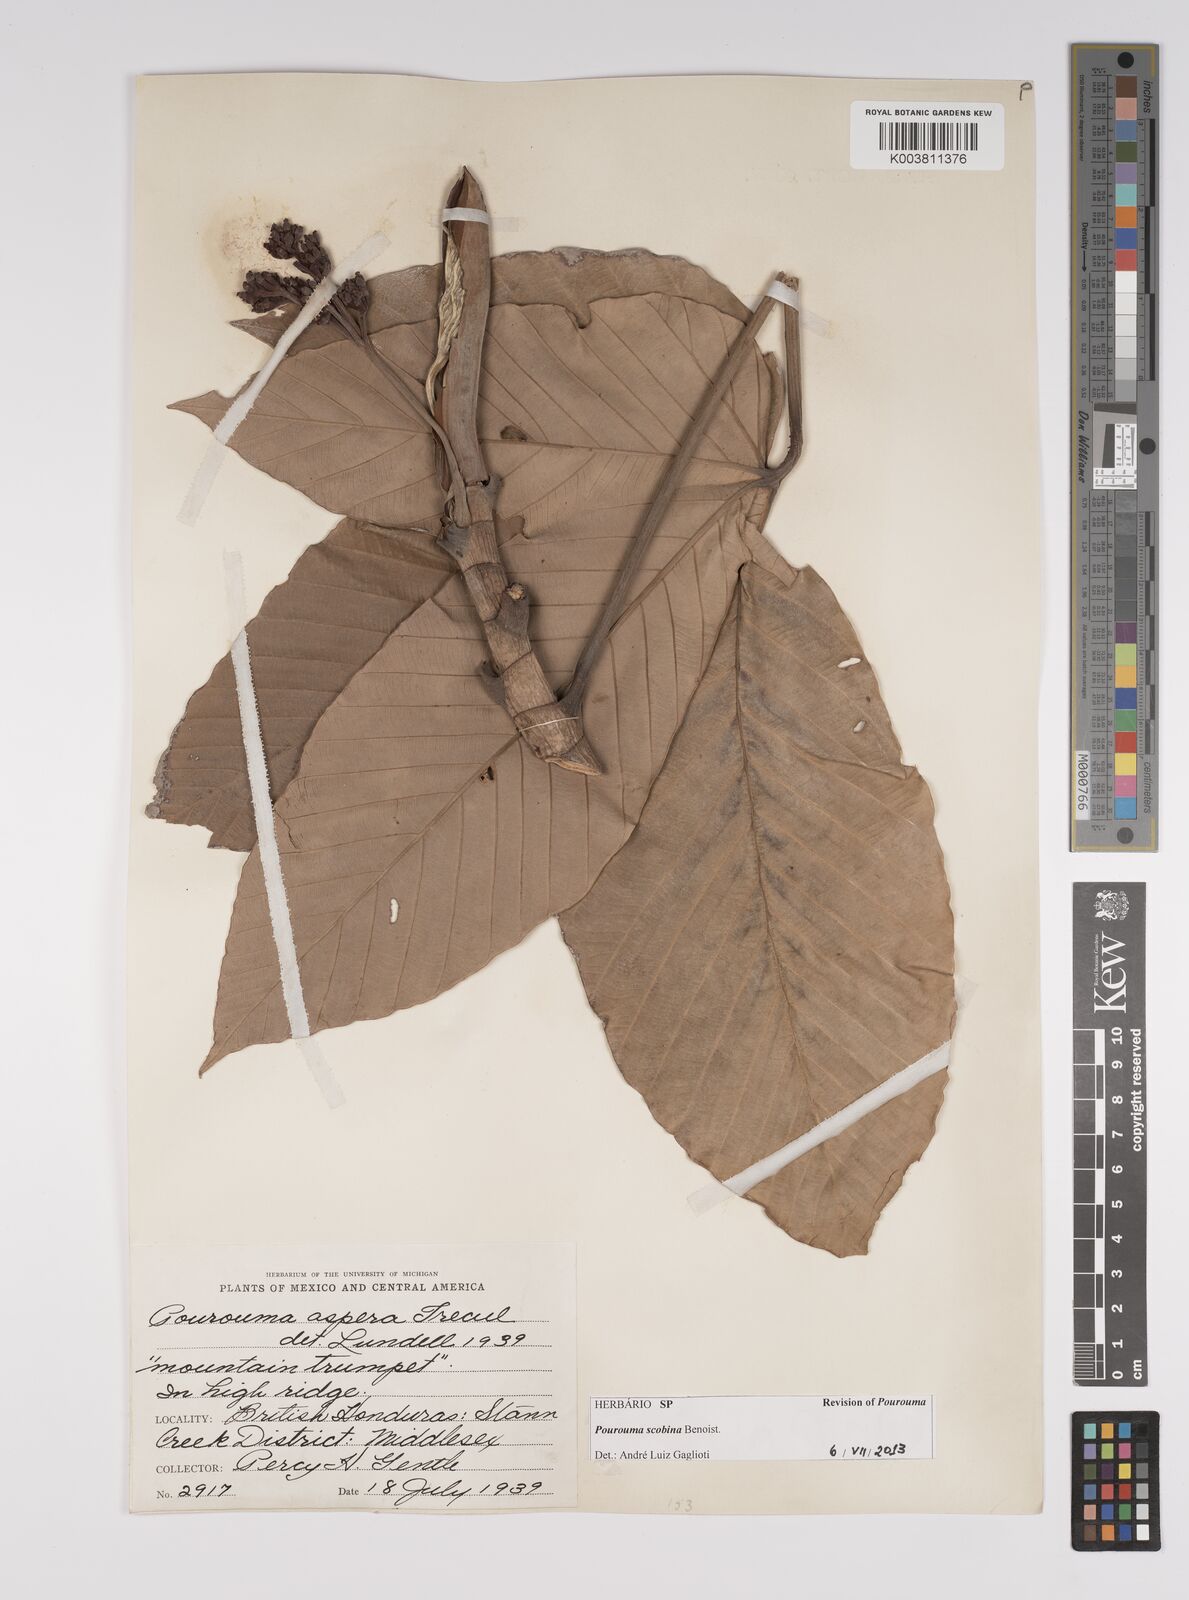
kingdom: Plantae
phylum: Tracheophyta
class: Magnoliopsida
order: Rosales
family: Urticaceae
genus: Pourouma
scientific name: Pourouma bicolor
